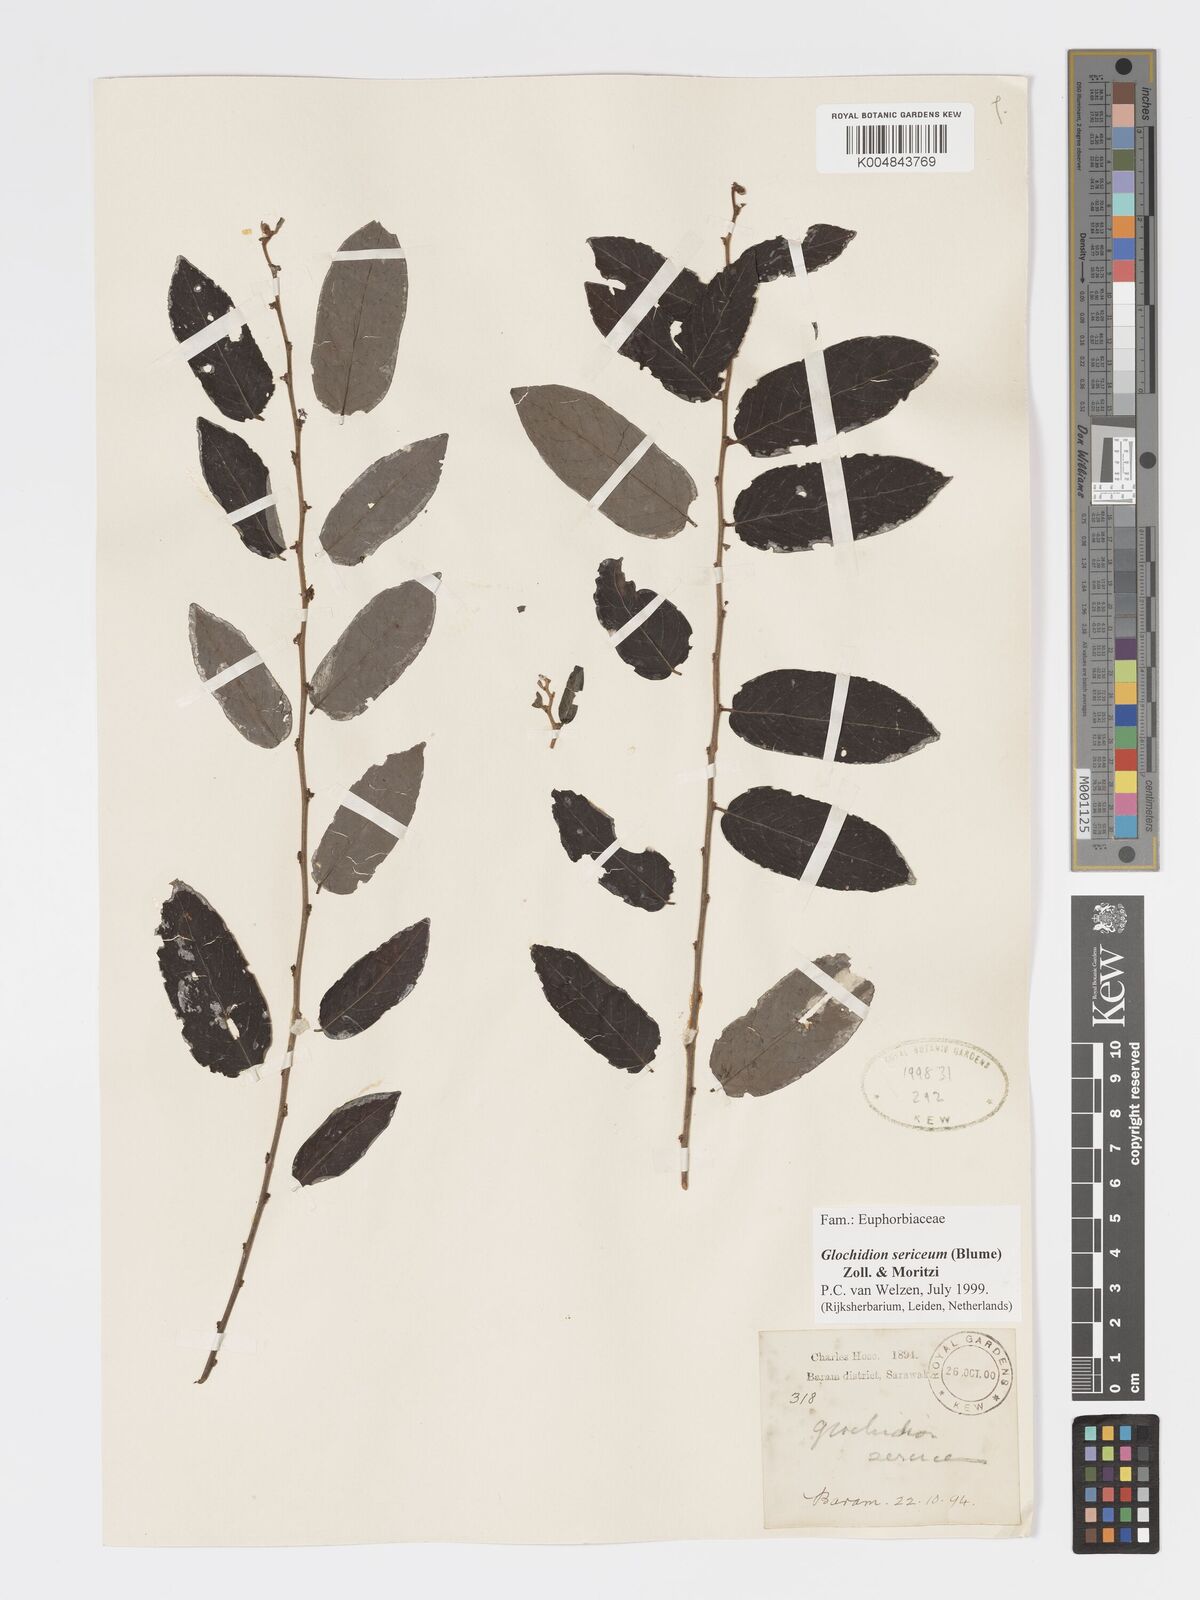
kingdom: Plantae
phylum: Tracheophyta
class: Magnoliopsida
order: Malpighiales
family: Phyllanthaceae
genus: Glochidion
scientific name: Glochidion sericeum
